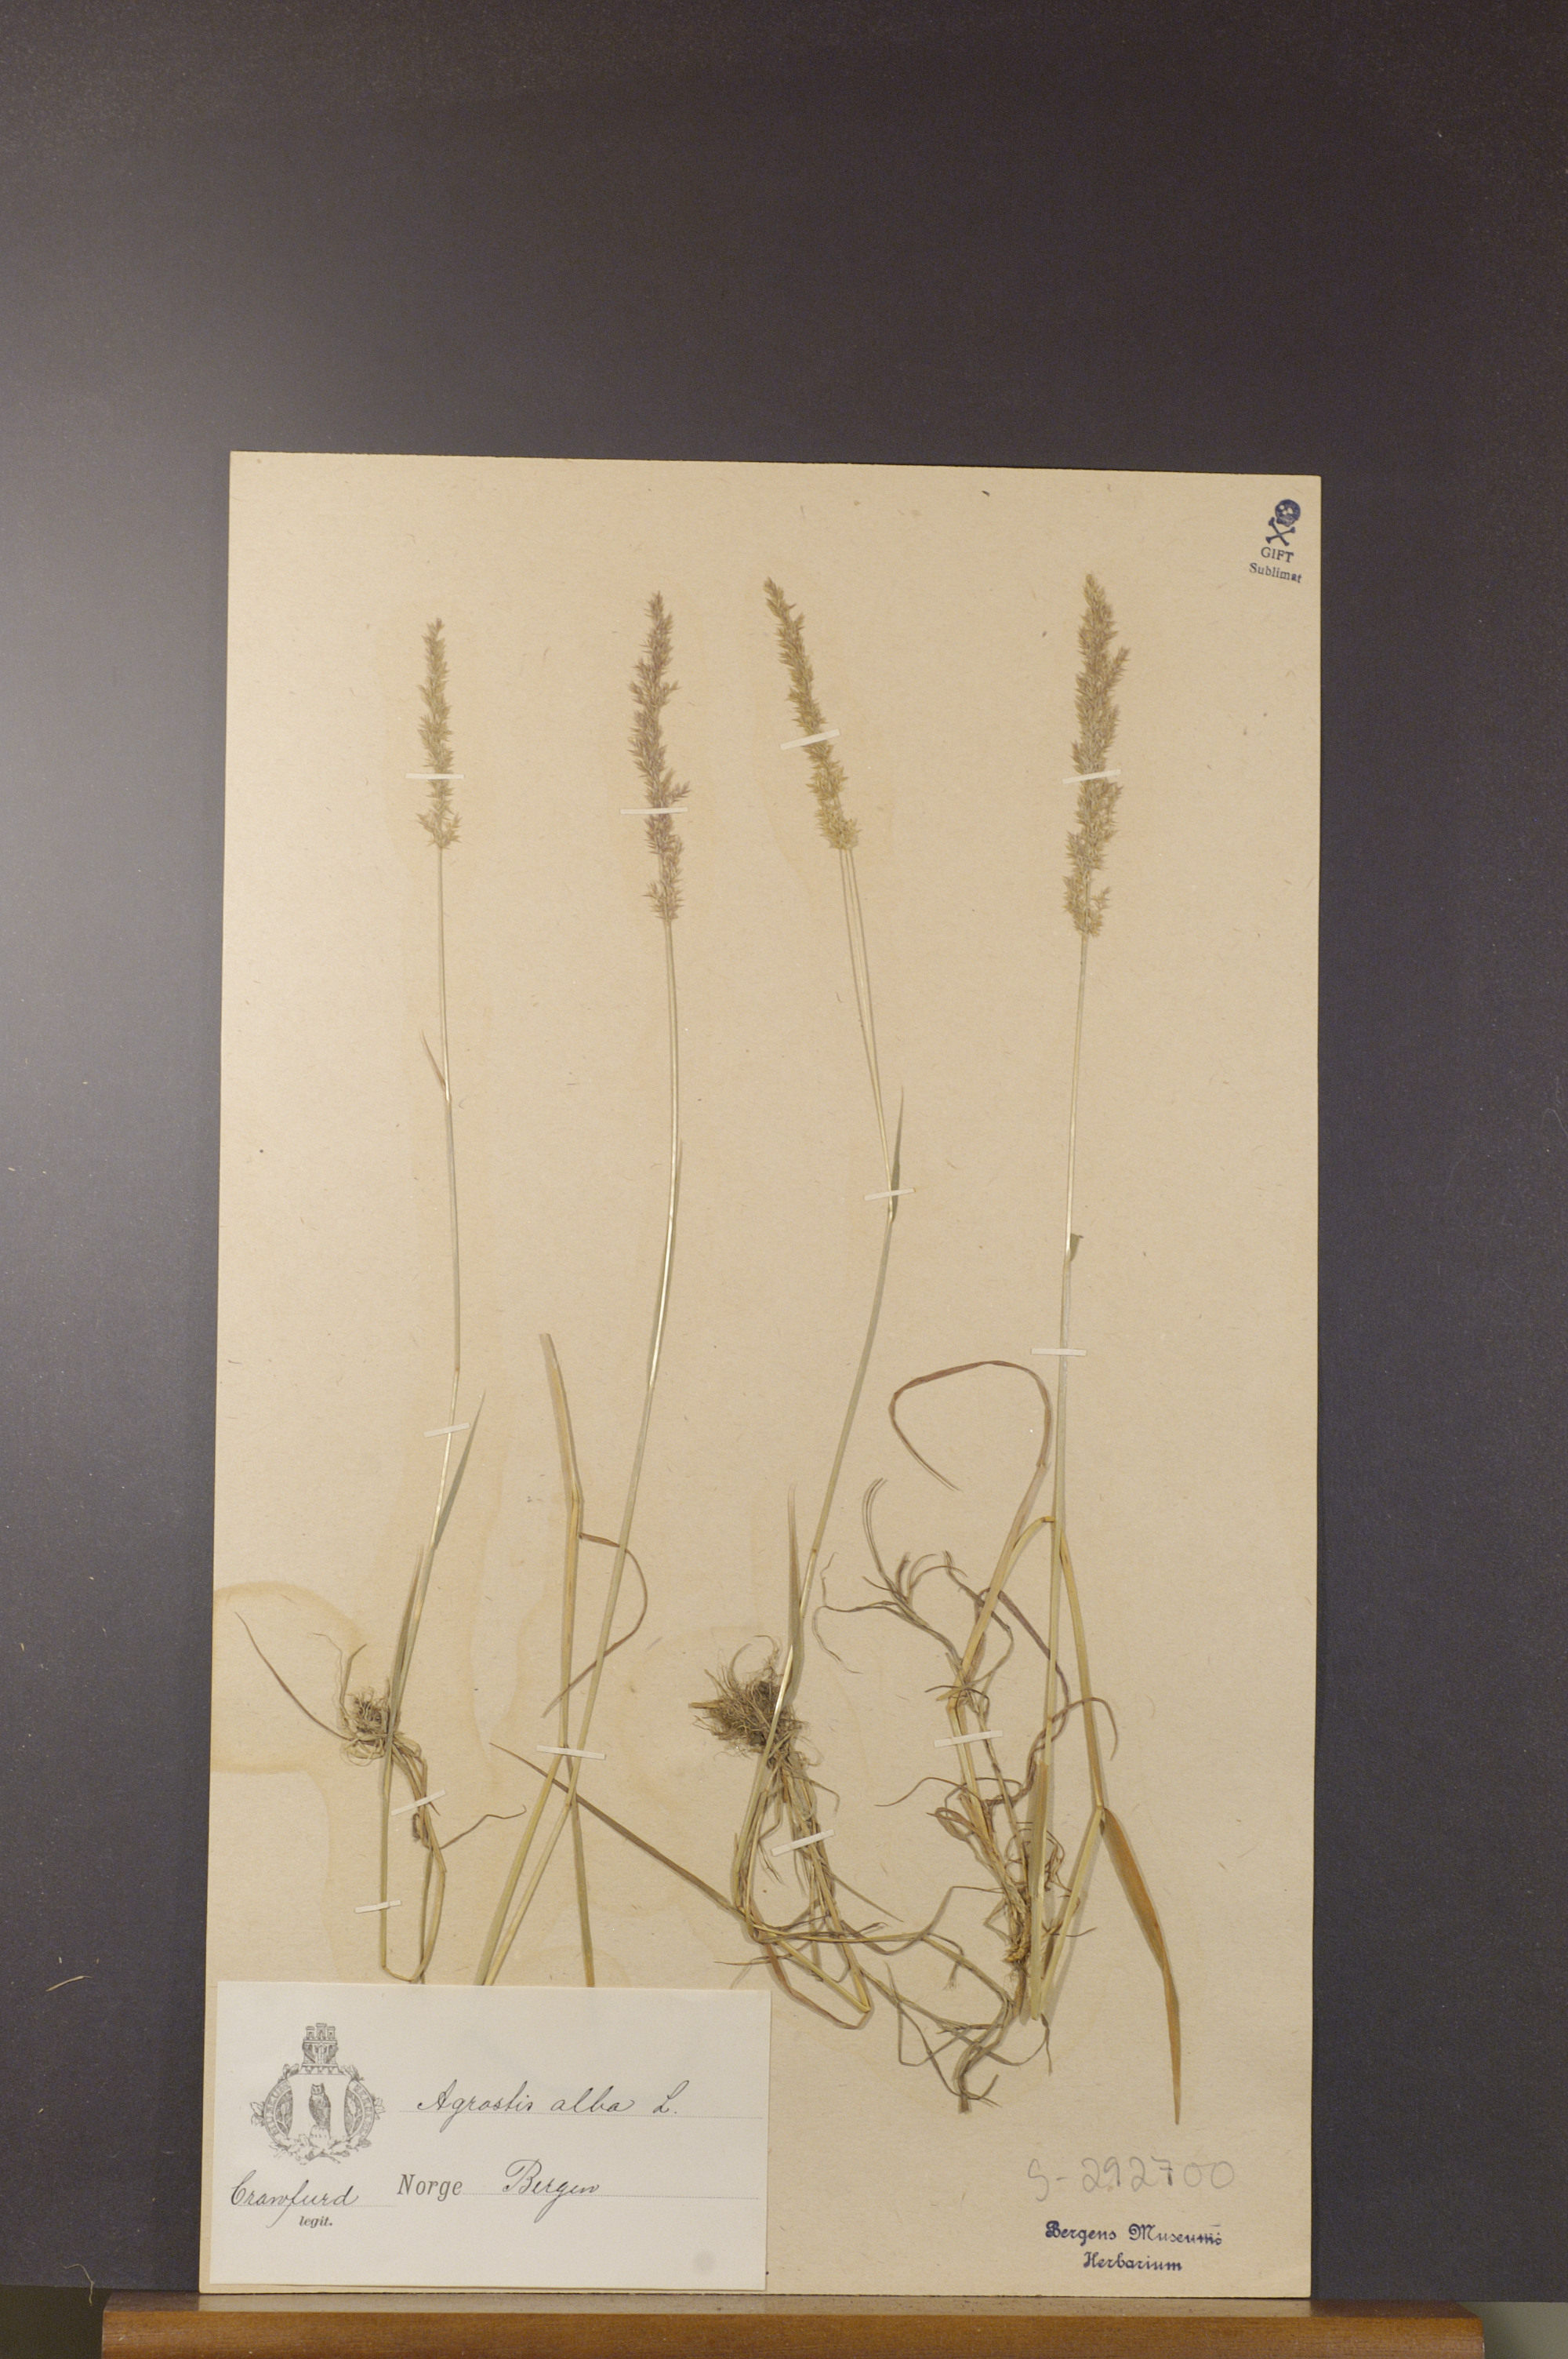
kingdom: Plantae
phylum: Tracheophyta
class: Liliopsida
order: Poales
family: Poaceae
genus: Agrostis
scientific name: Agrostis stolonifera
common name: Creeping bentgrass
